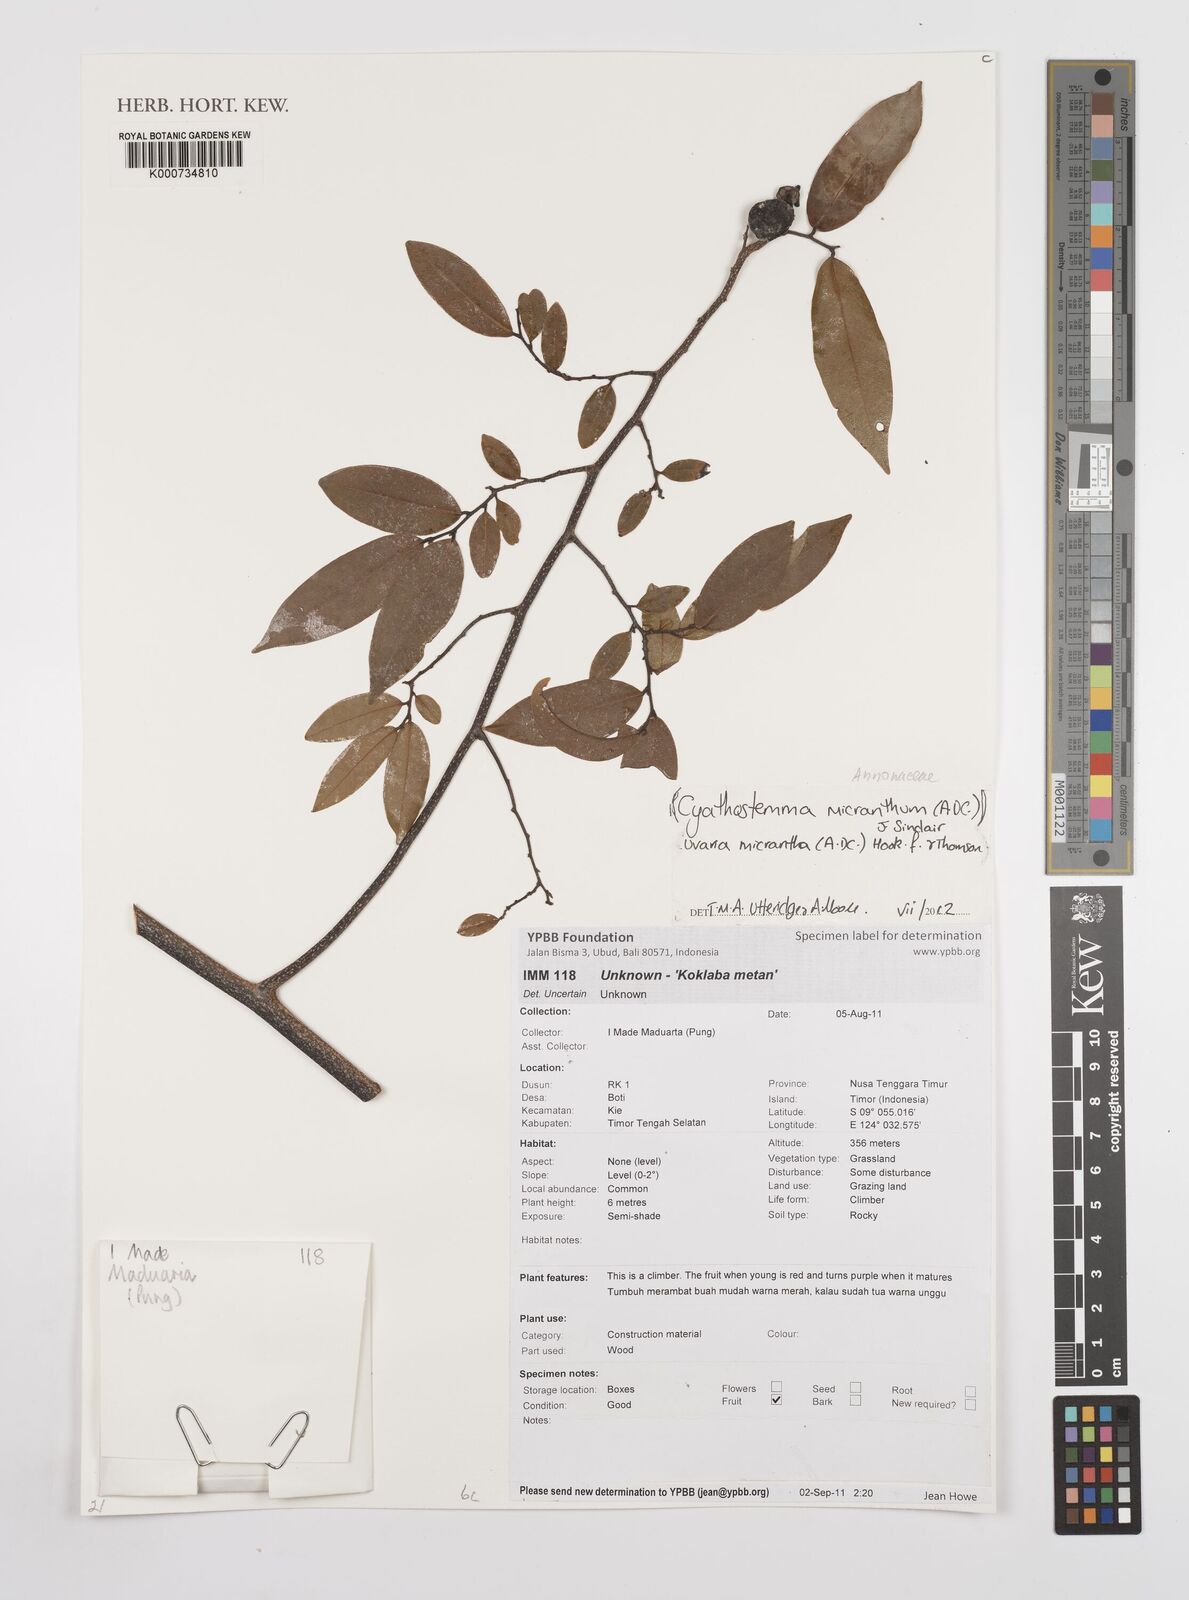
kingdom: Plantae
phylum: Tracheophyta
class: Magnoliopsida
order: Magnoliales
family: Annonaceae
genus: Uvaria
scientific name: Uvaria micrantha
